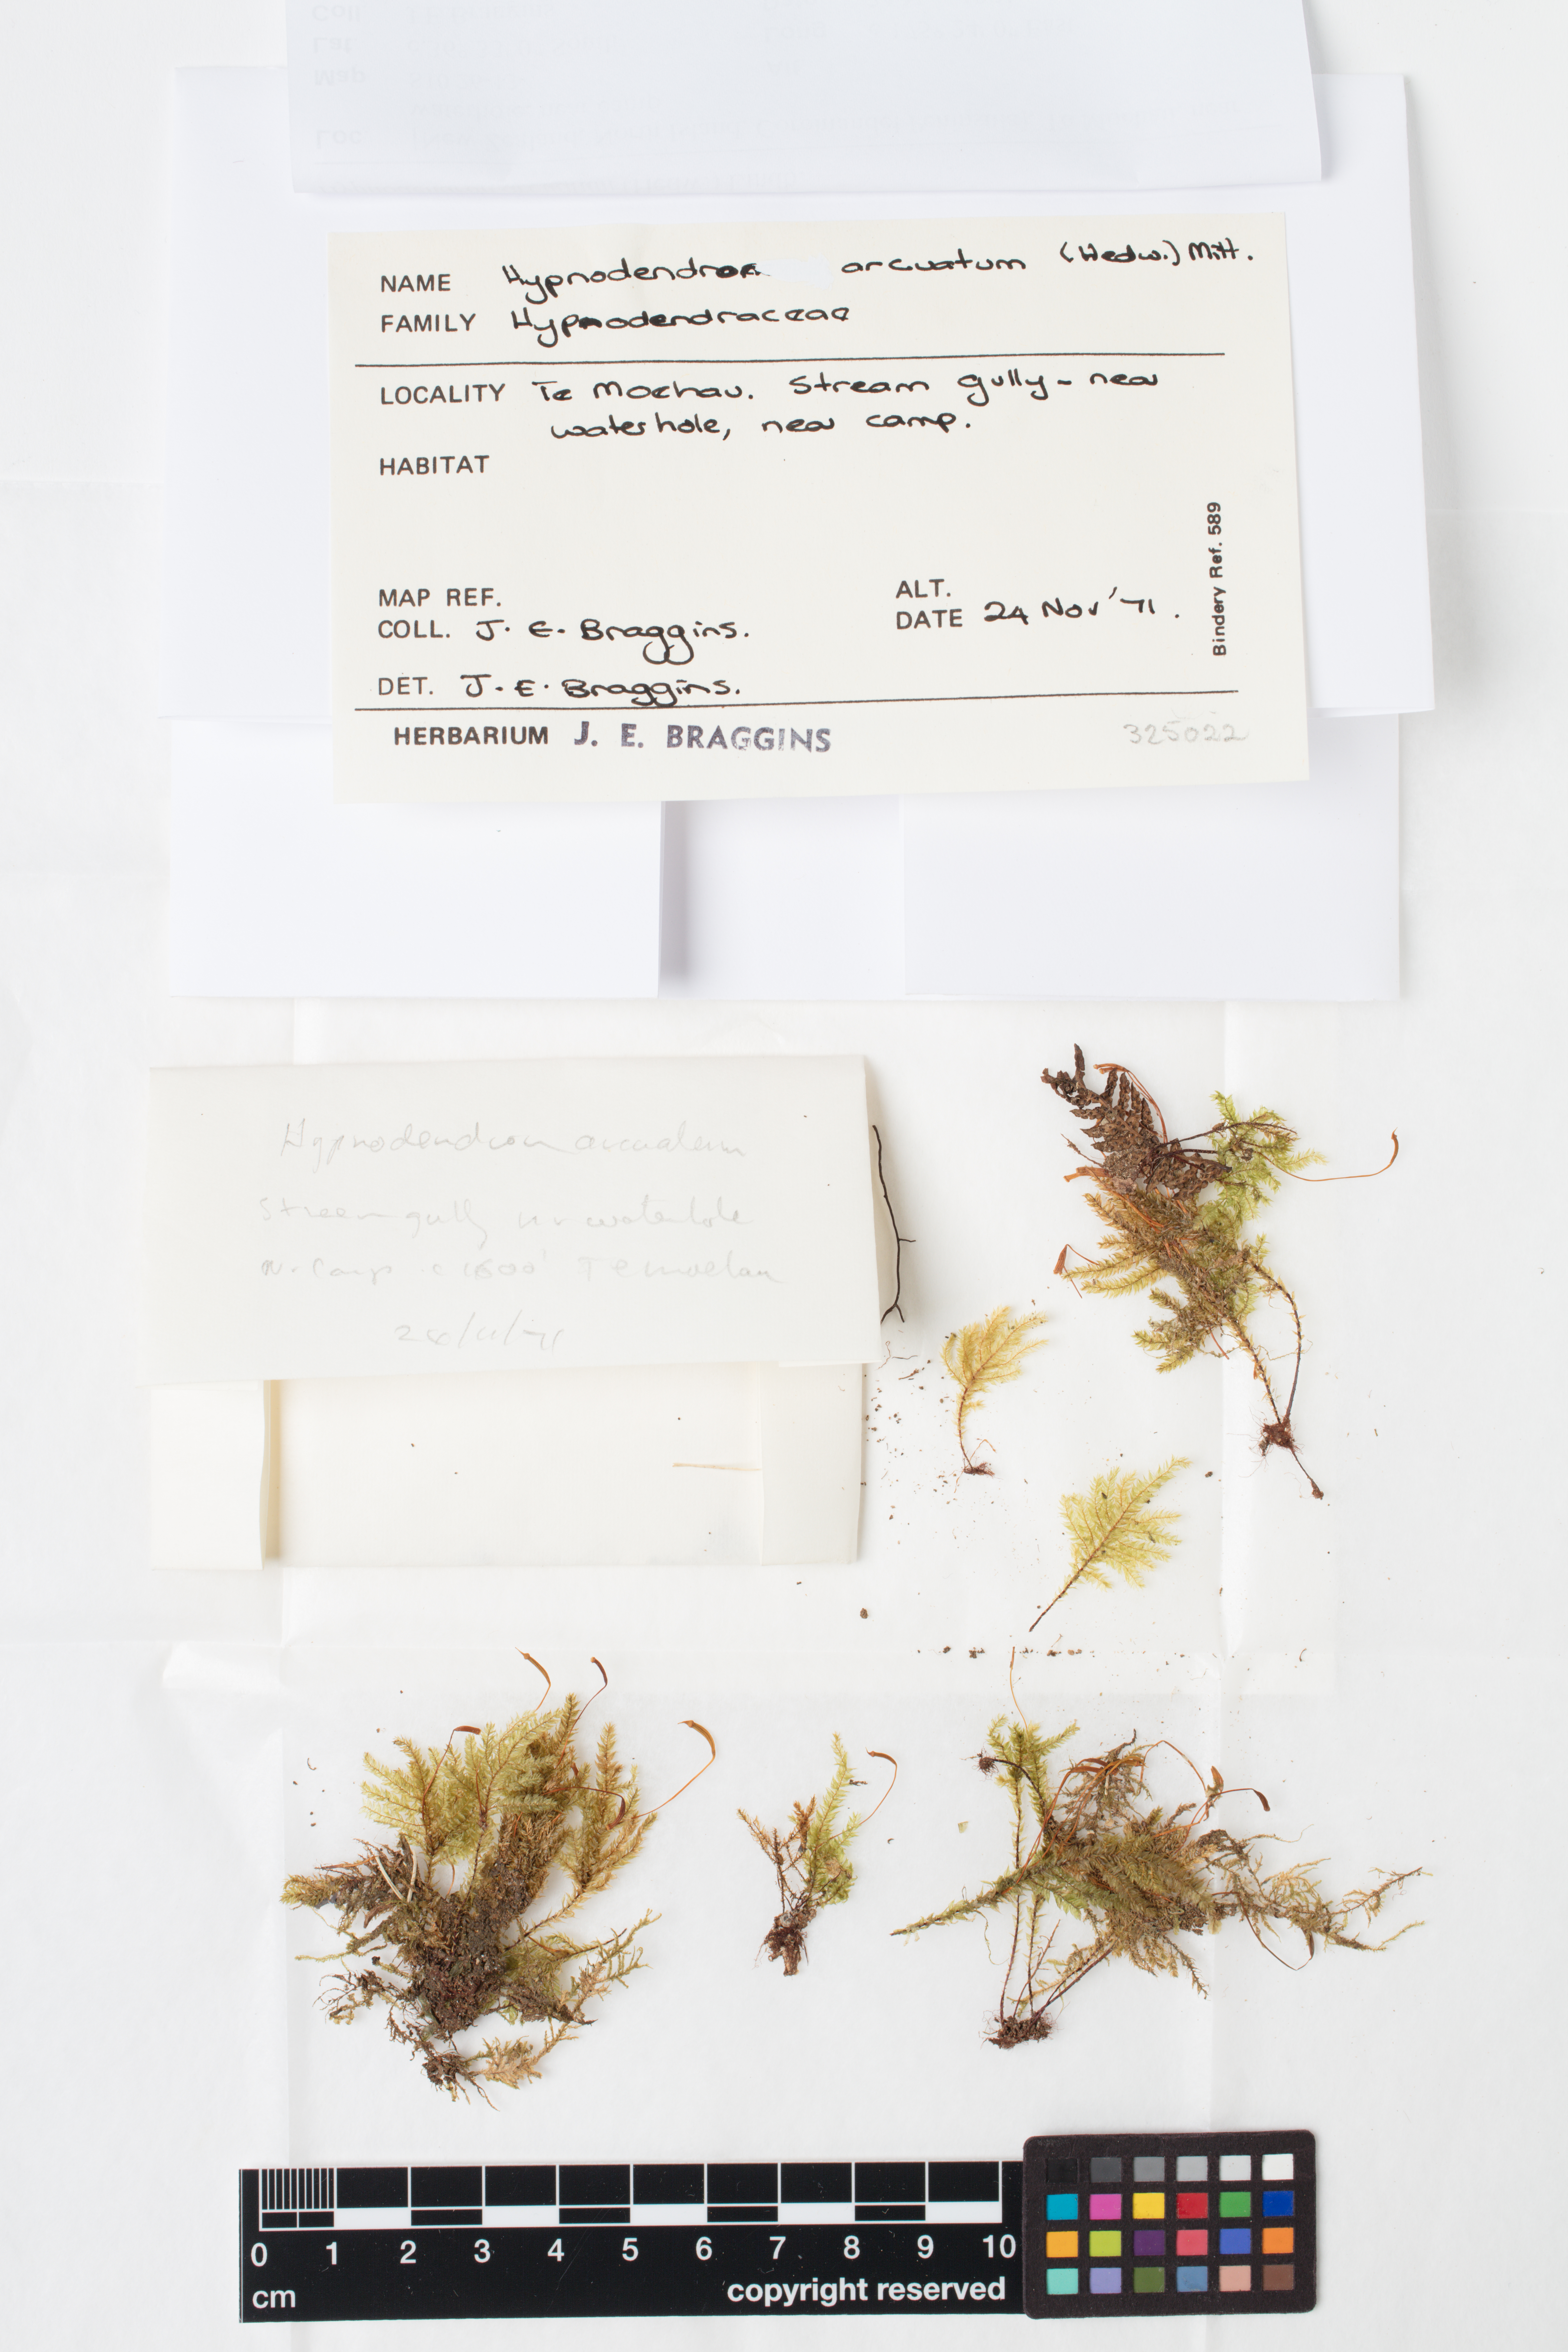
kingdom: Plantae
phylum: Bryophyta
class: Bryopsida
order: Hypnodendrales
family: Spiridentaceae
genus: Hypnodendron
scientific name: Hypnodendron arcuatum
